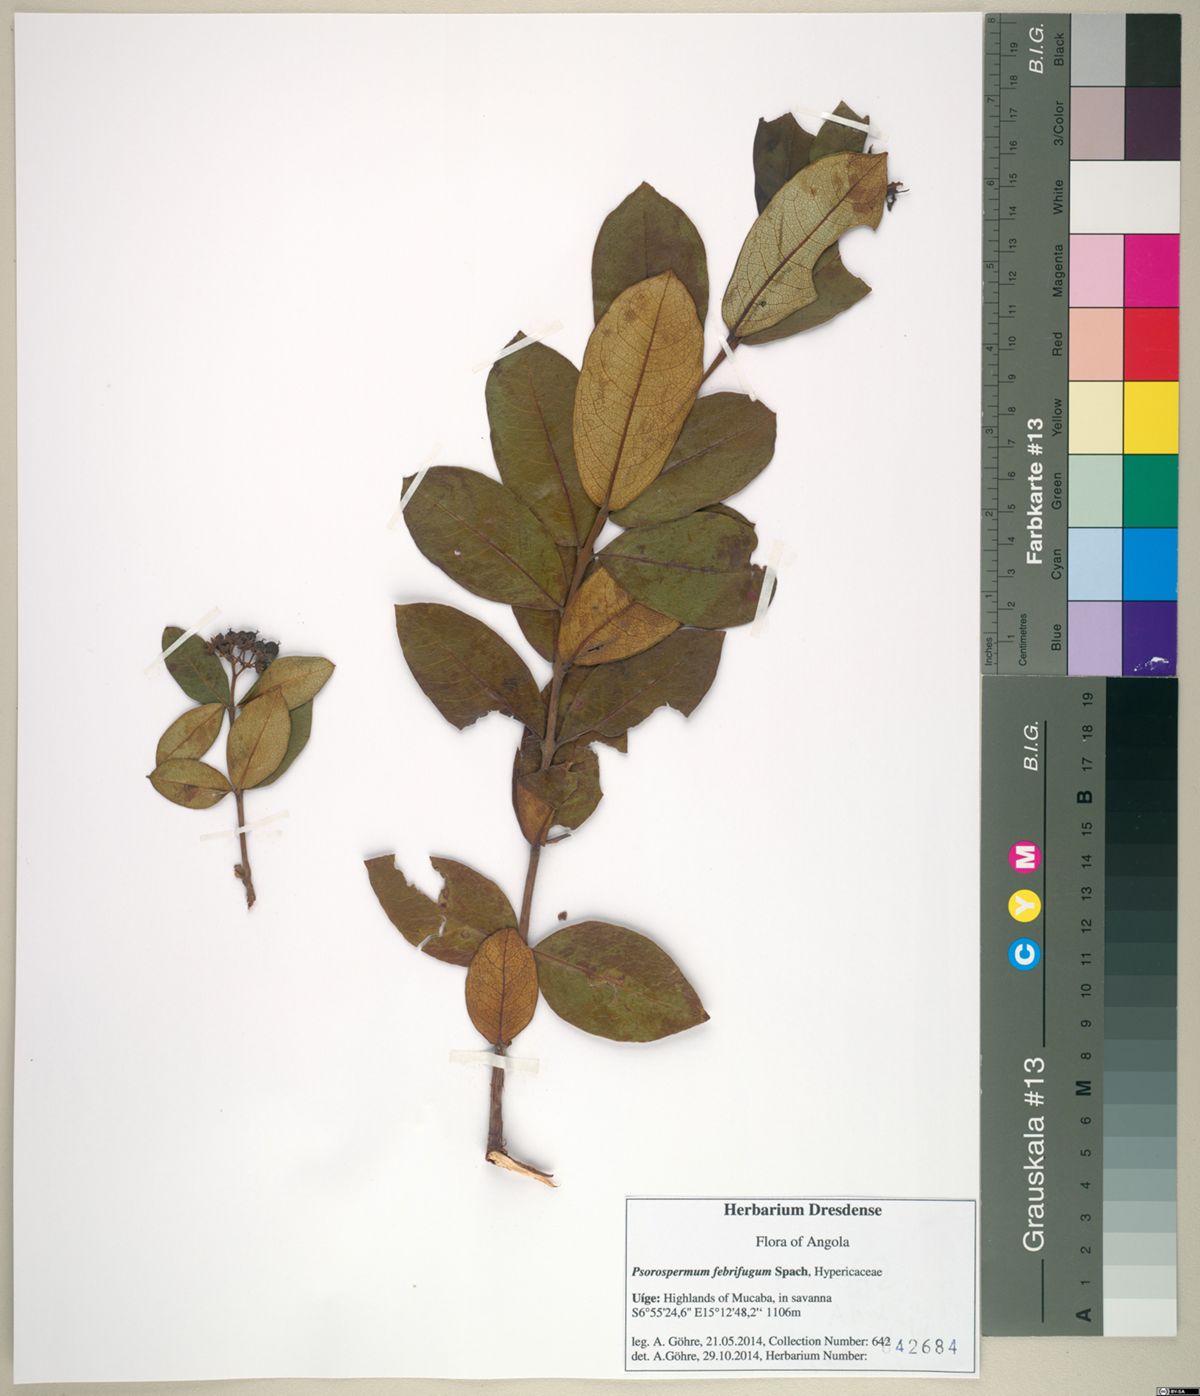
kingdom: Plantae
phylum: Tracheophyta
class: Magnoliopsida
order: Malpighiales
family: Hypericaceae
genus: Psorospermum
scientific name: Psorospermum febrifugum
